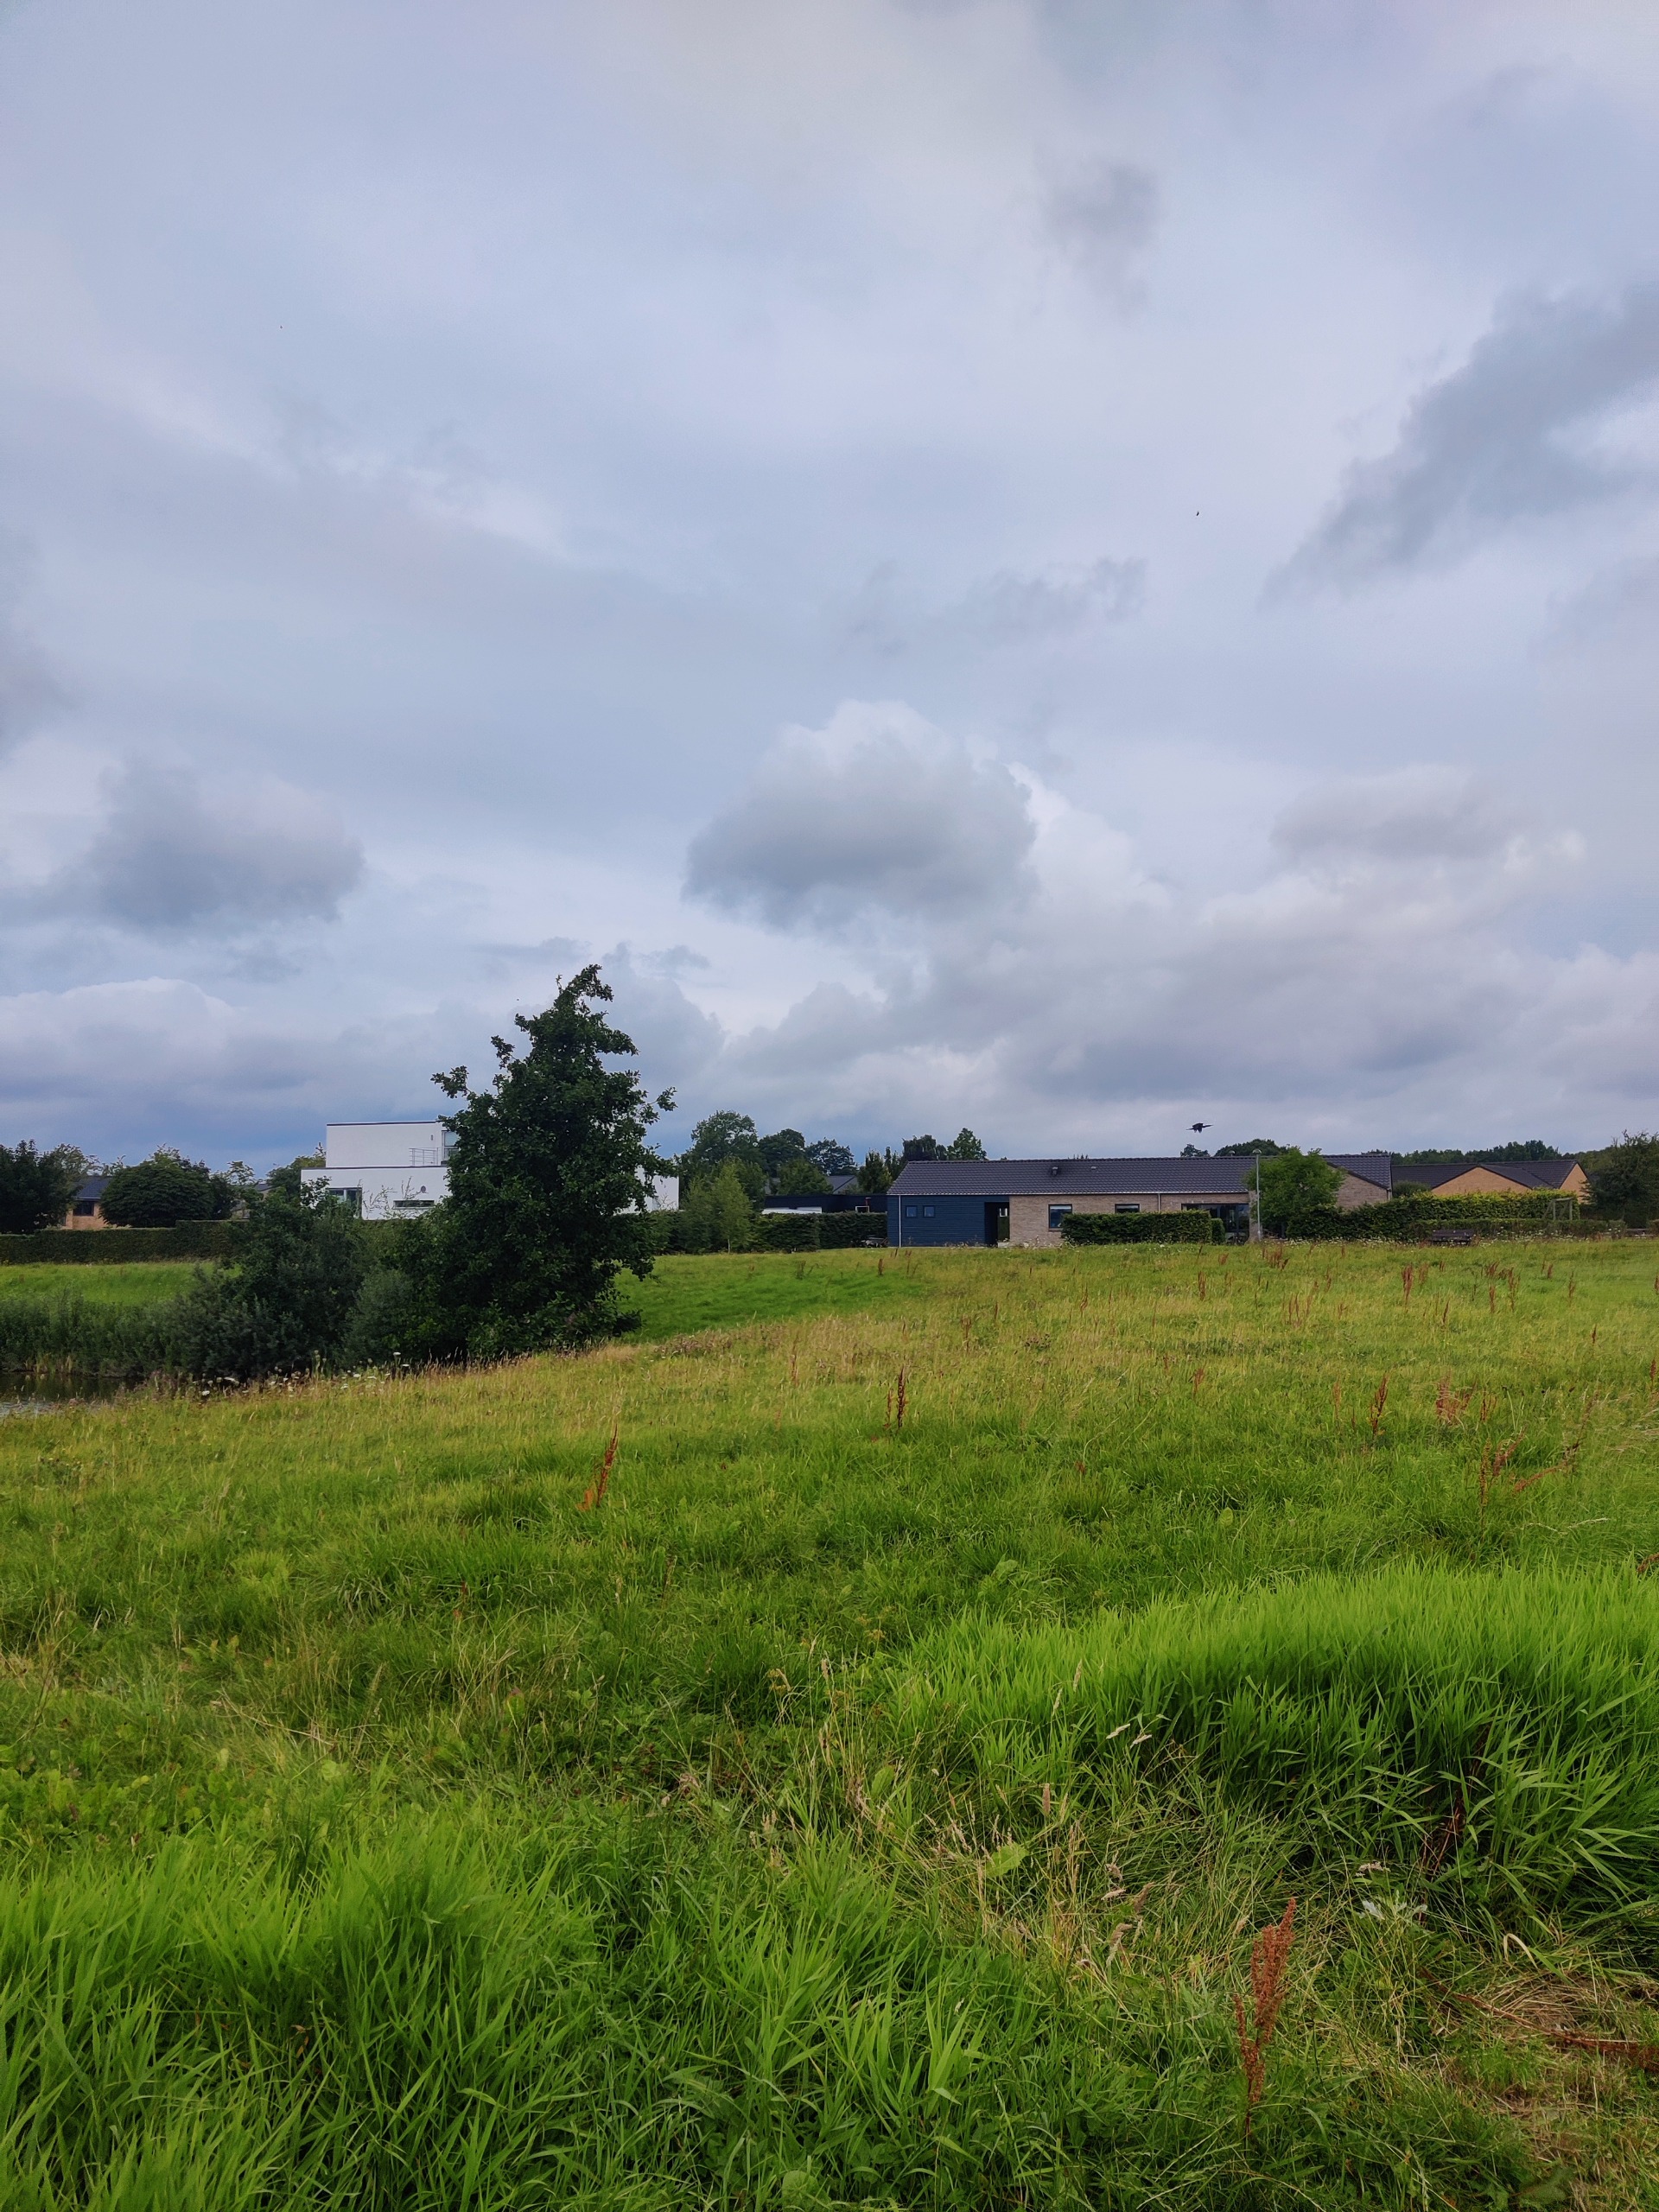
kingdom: Animalia
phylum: Chordata
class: Aves
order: Suliformes
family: Phalacrocoracidae
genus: Phalacrocorax
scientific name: Phalacrocorax carbo
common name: Skarv
